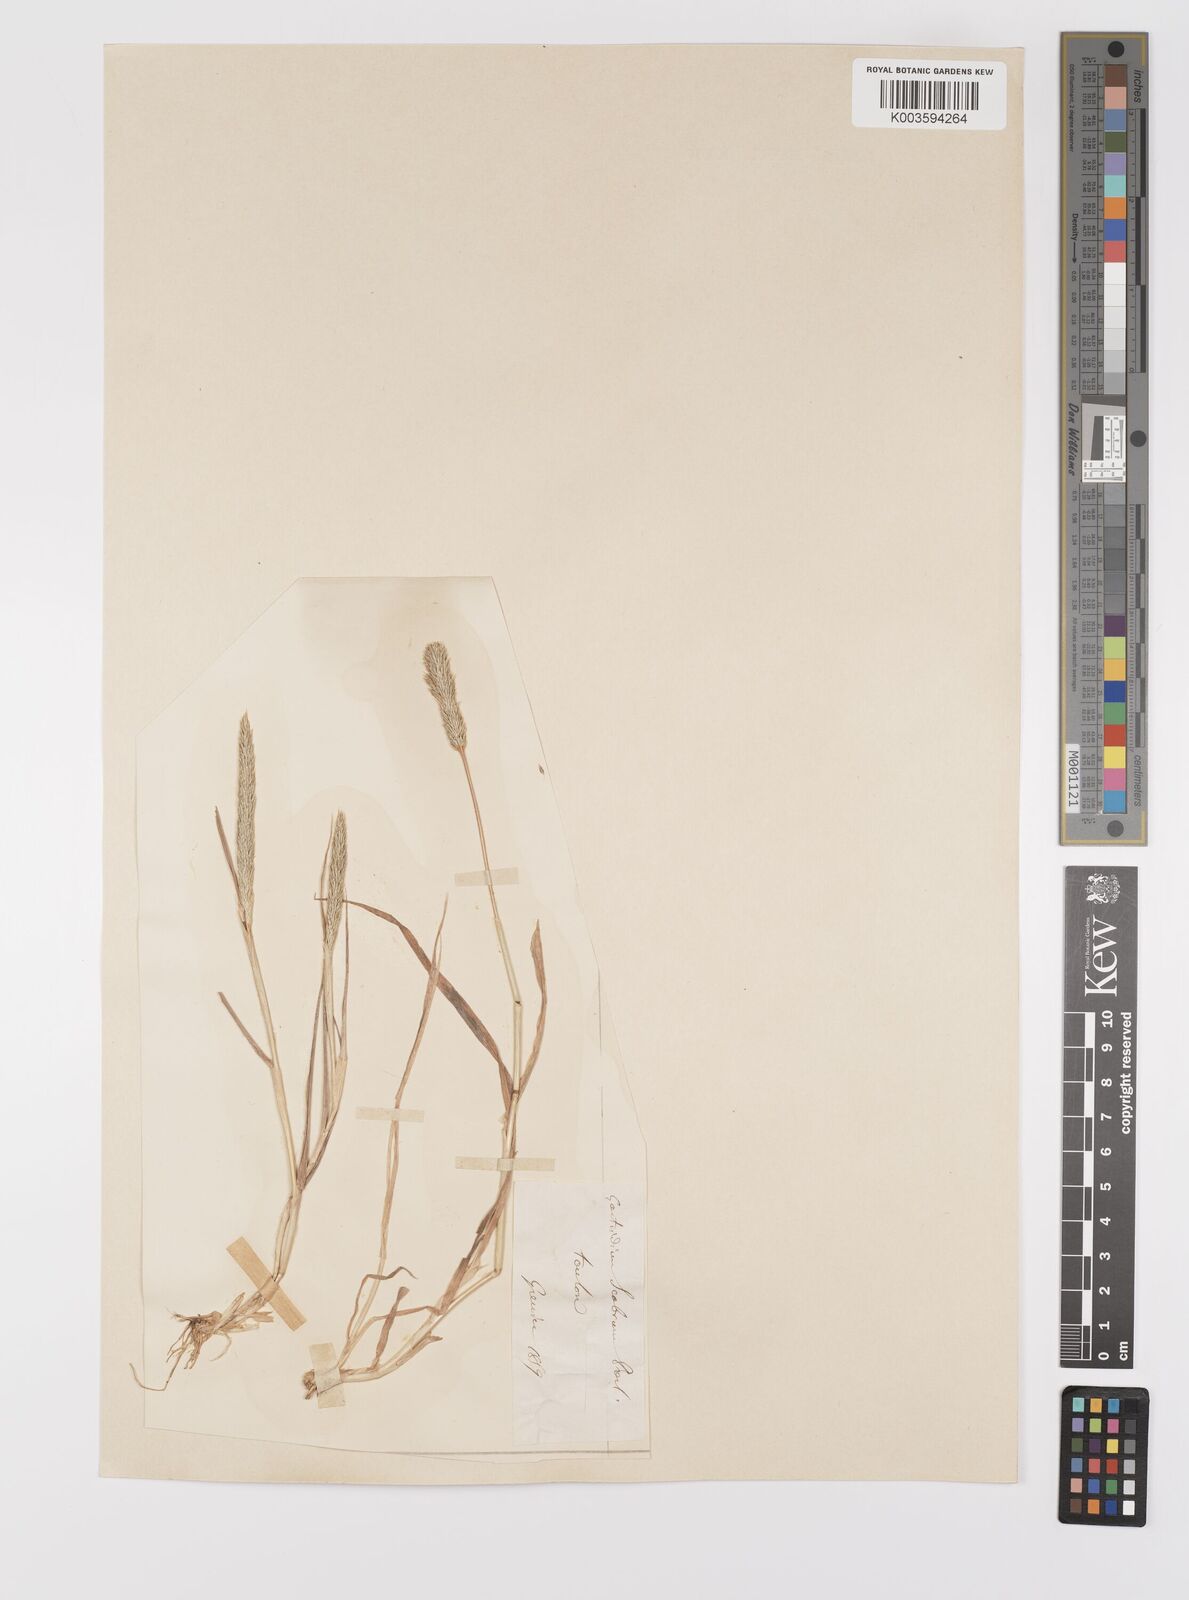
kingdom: Plantae
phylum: Tracheophyta
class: Liliopsida
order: Poales
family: Poaceae
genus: Gastridium
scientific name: Gastridium ventricosum
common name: Nit-grass
